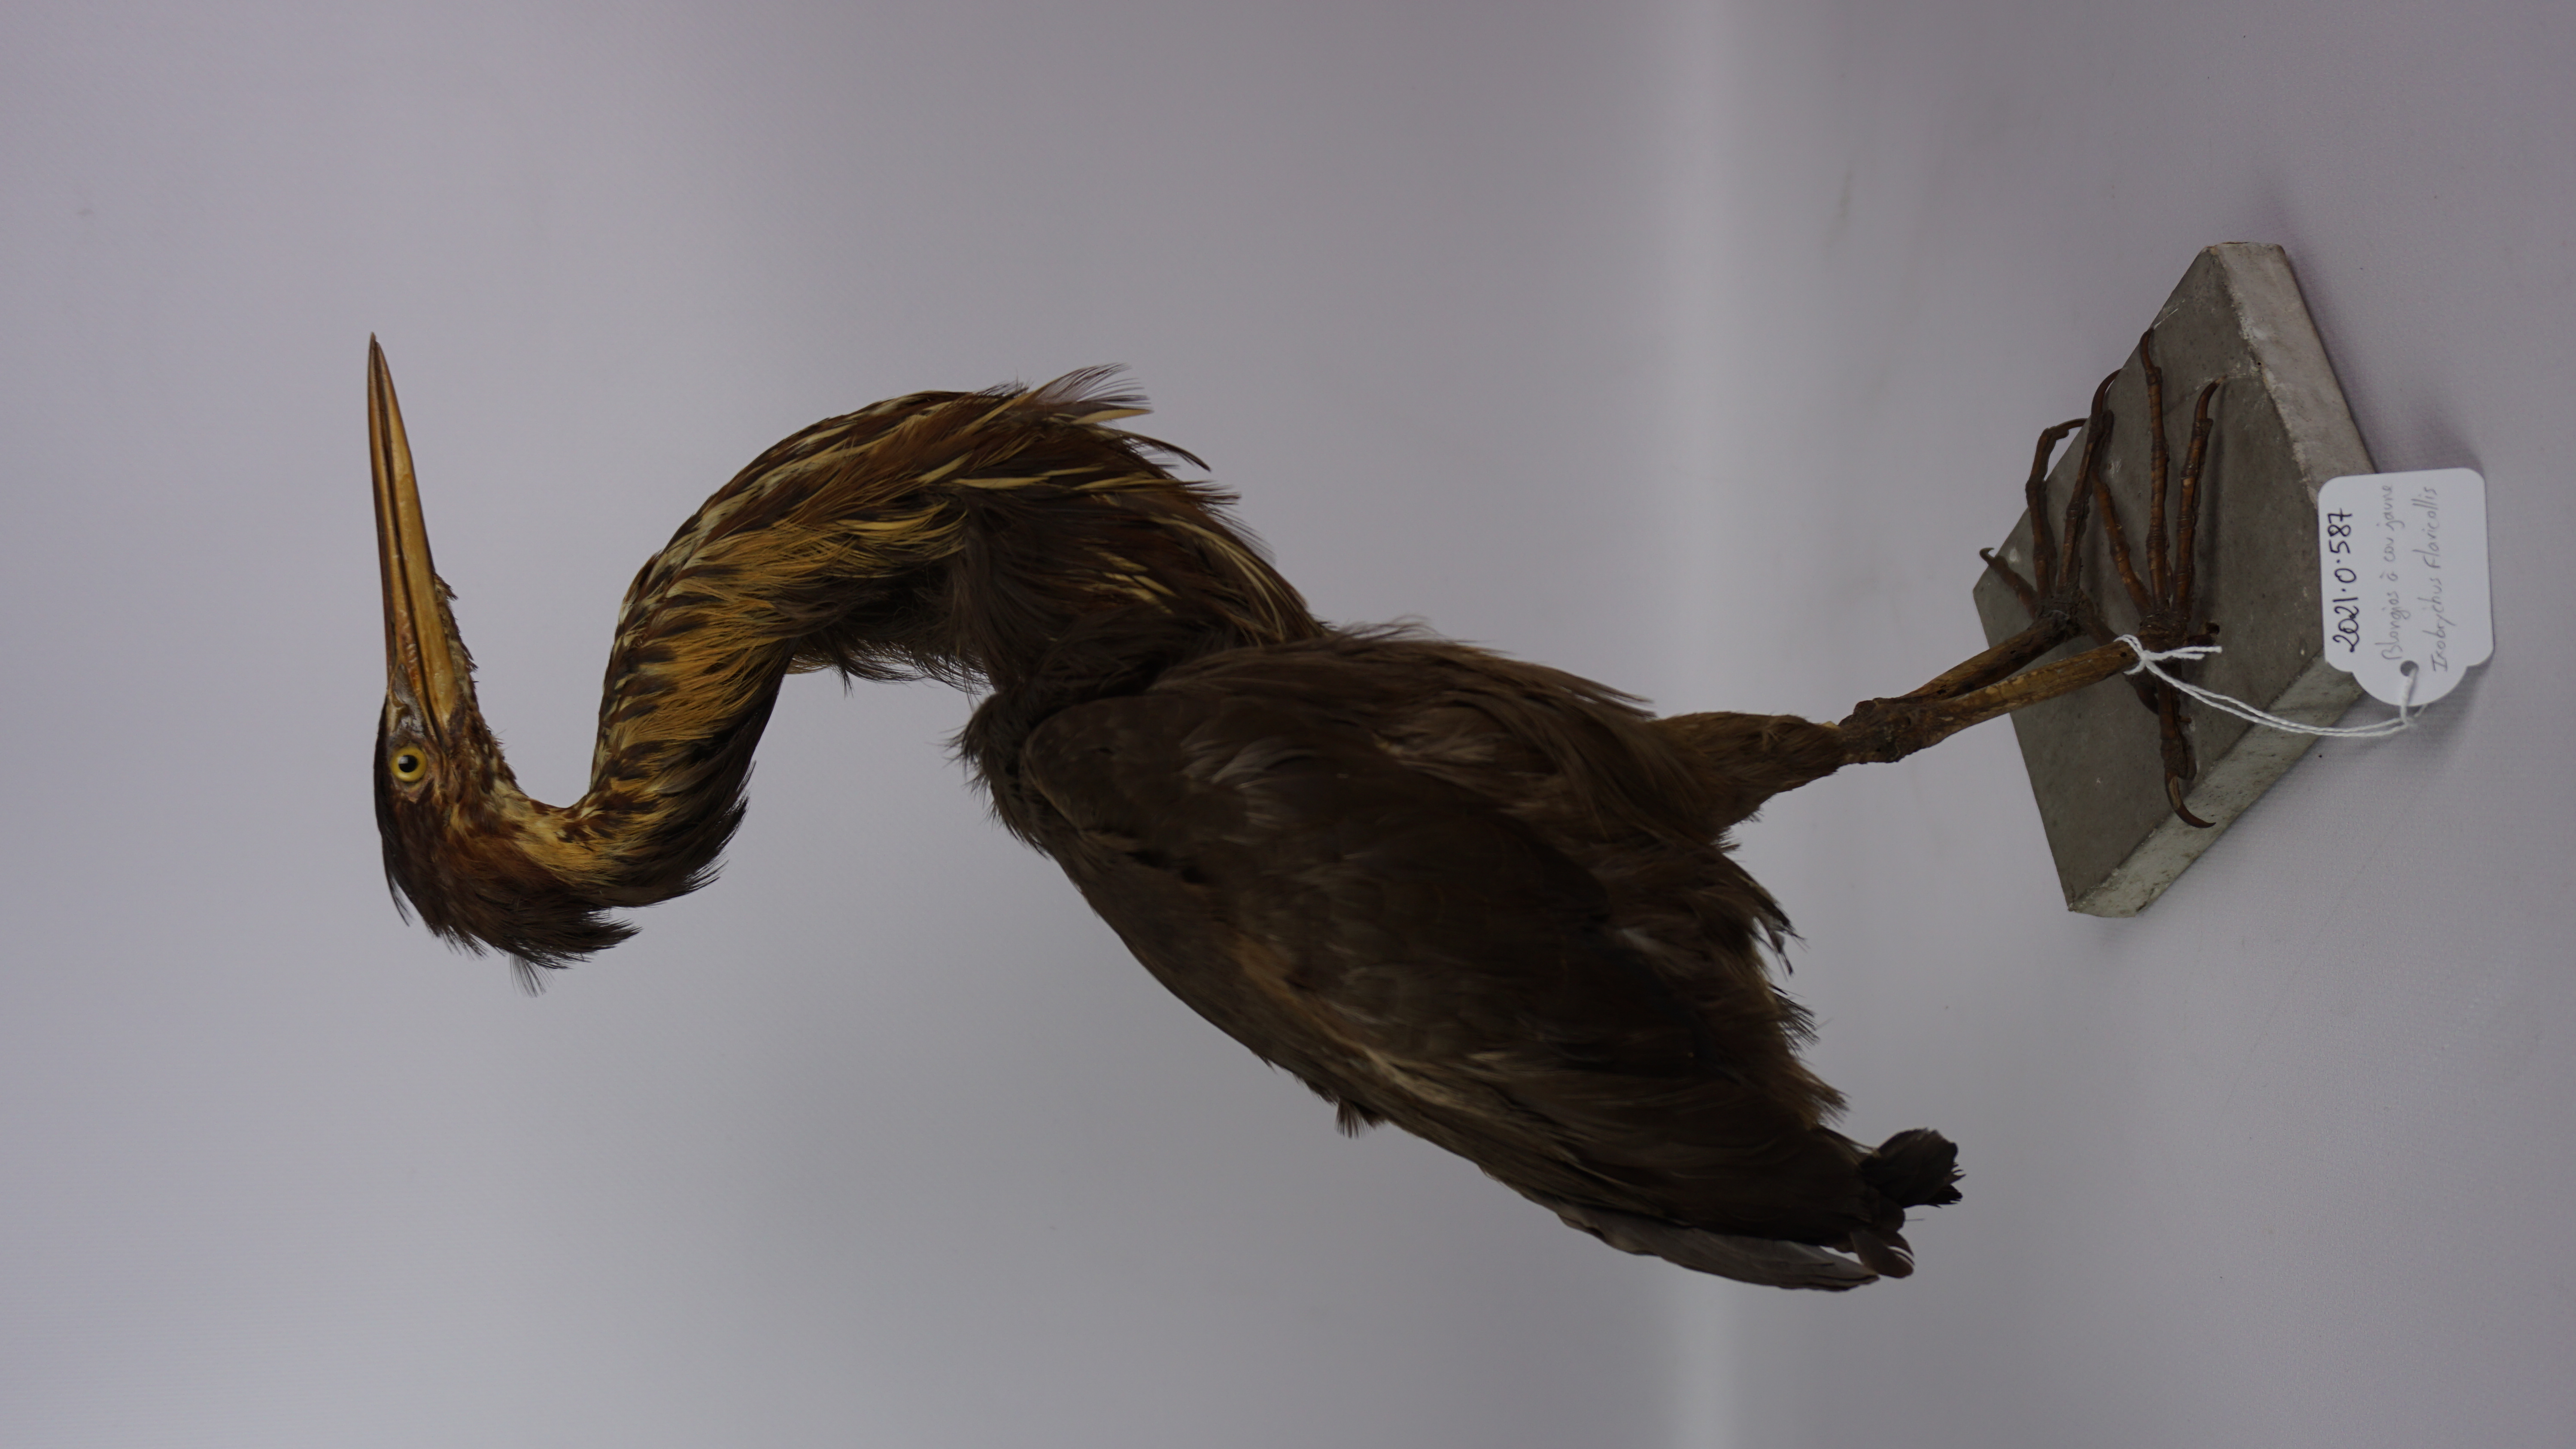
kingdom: Animalia
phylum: Chordata
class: Aves
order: Pelecaniformes
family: Ardeidae
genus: Dupetor
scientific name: Dupetor flavicollis
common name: Black bittern
